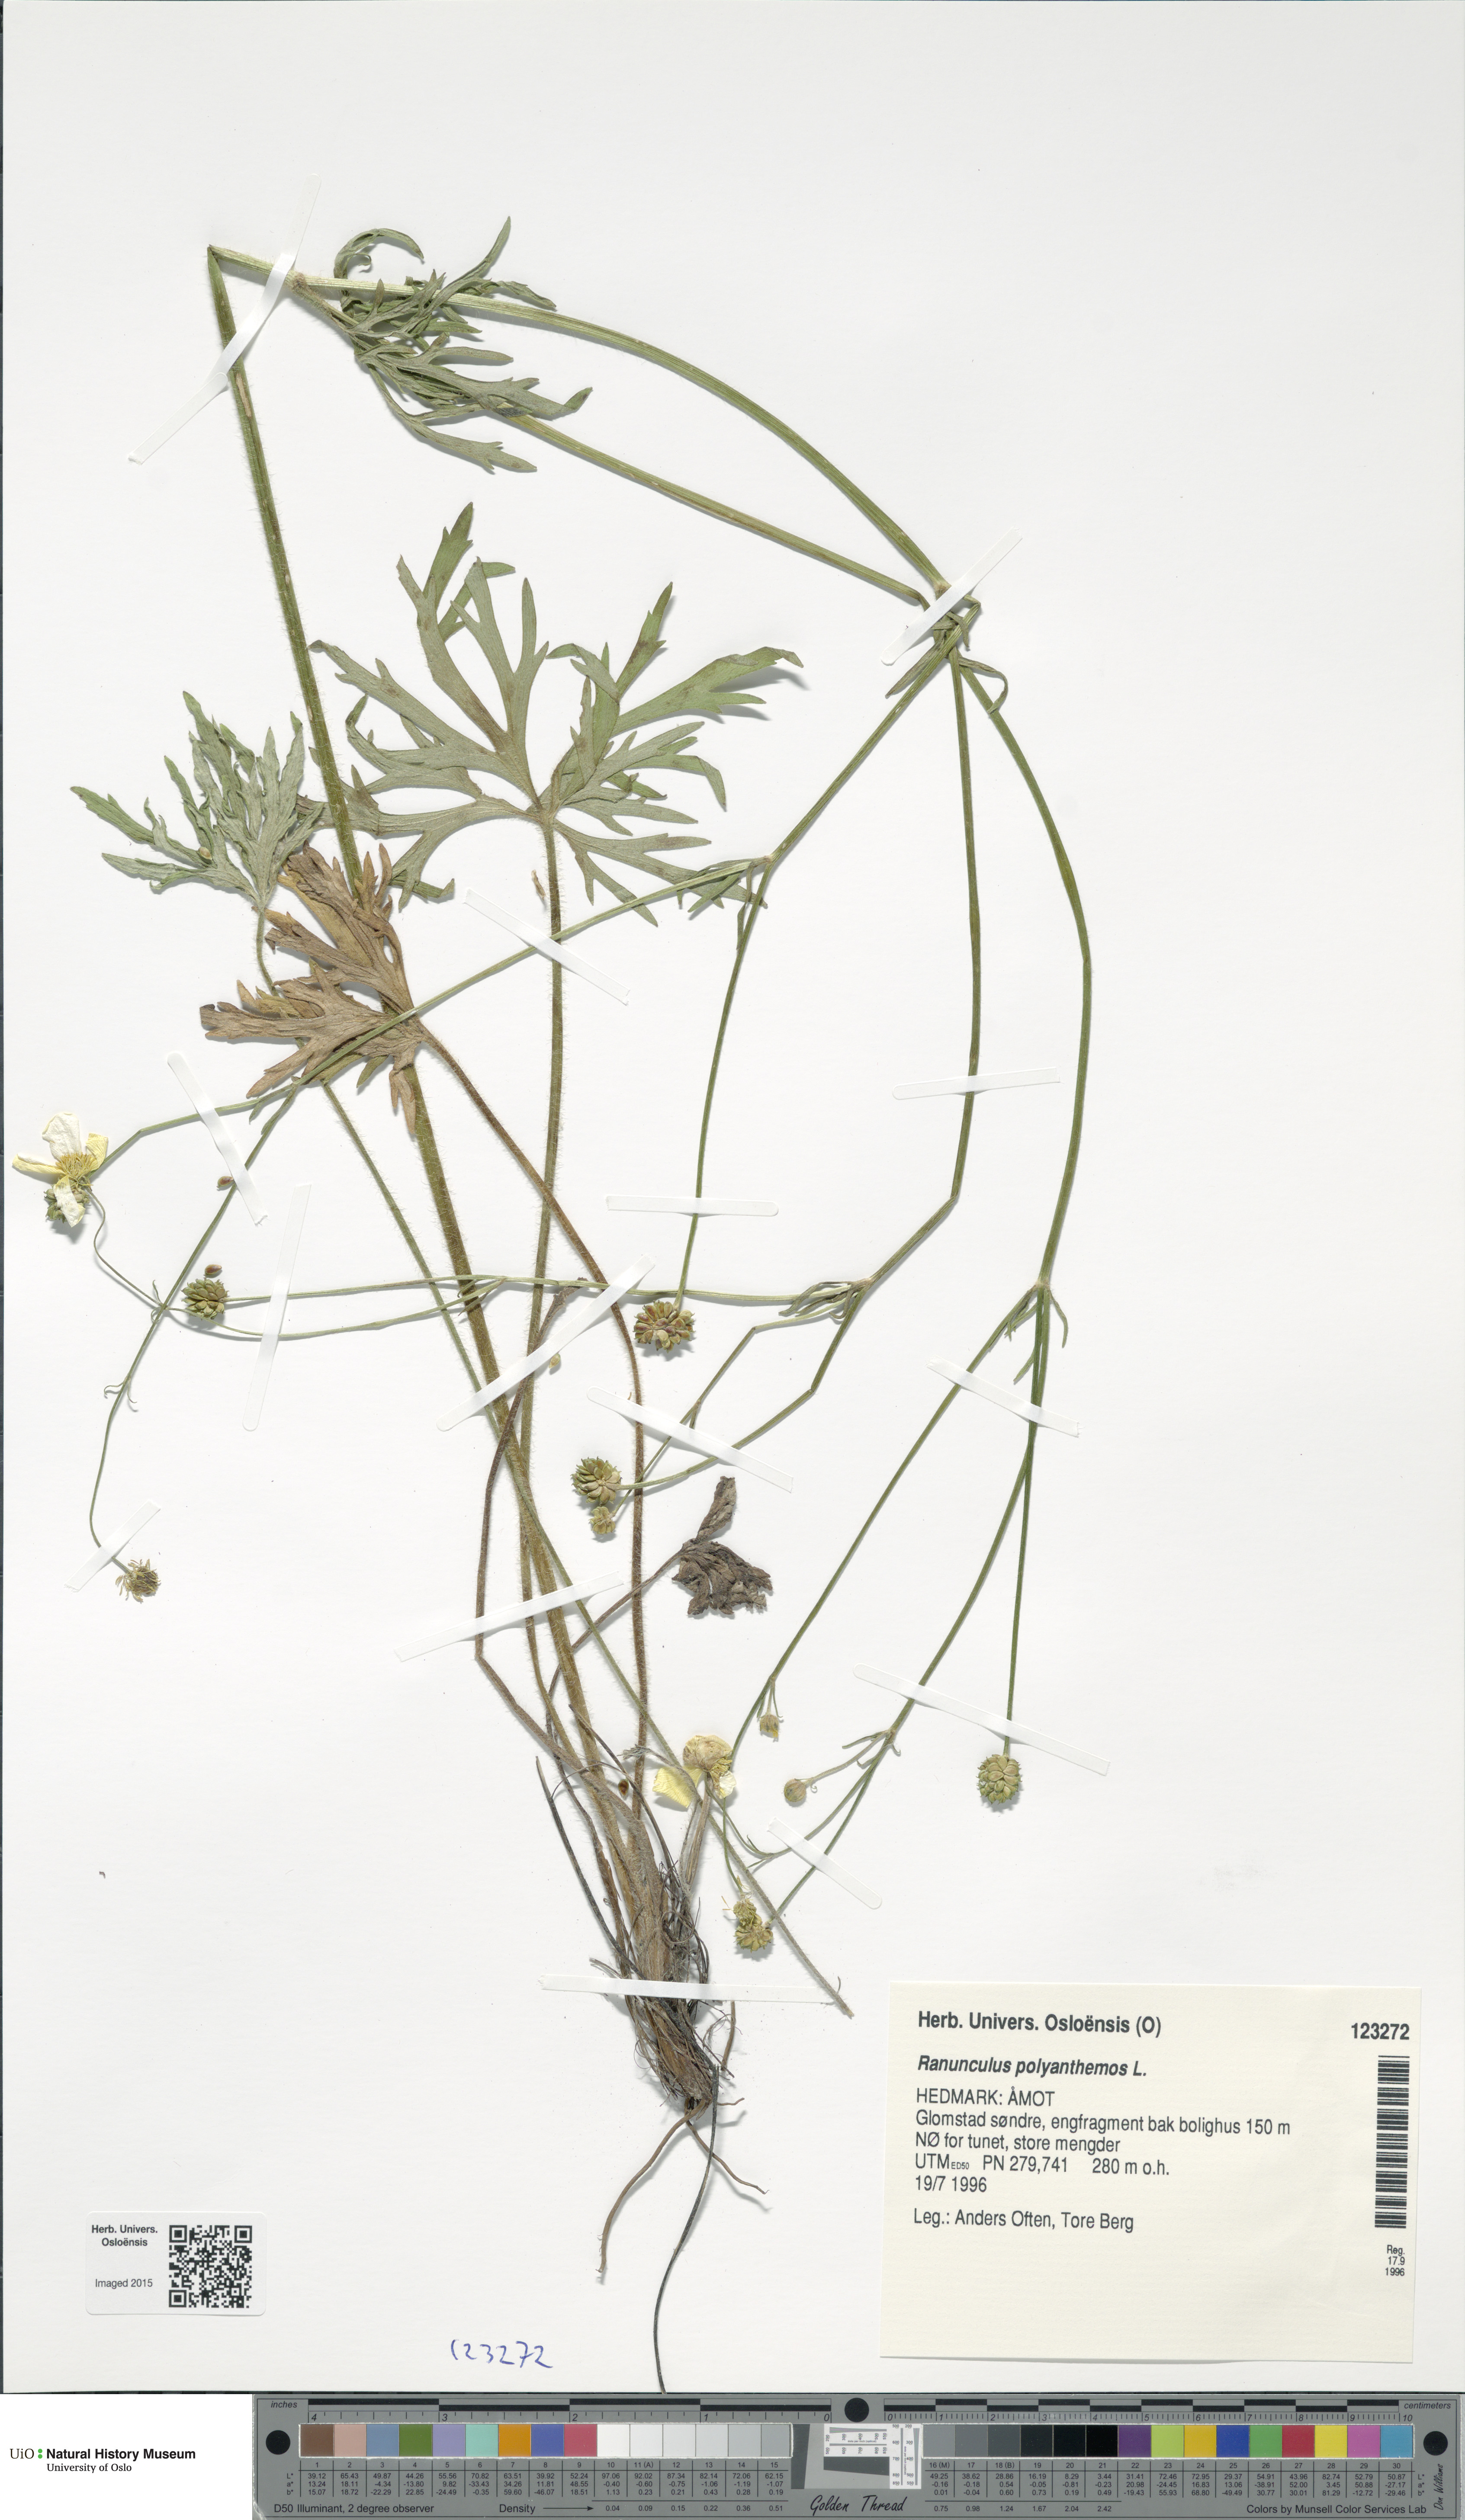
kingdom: Plantae
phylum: Tracheophyta
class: Magnoliopsida
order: Ranunculales
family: Ranunculaceae
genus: Ranunculus
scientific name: Ranunculus polyanthemos
